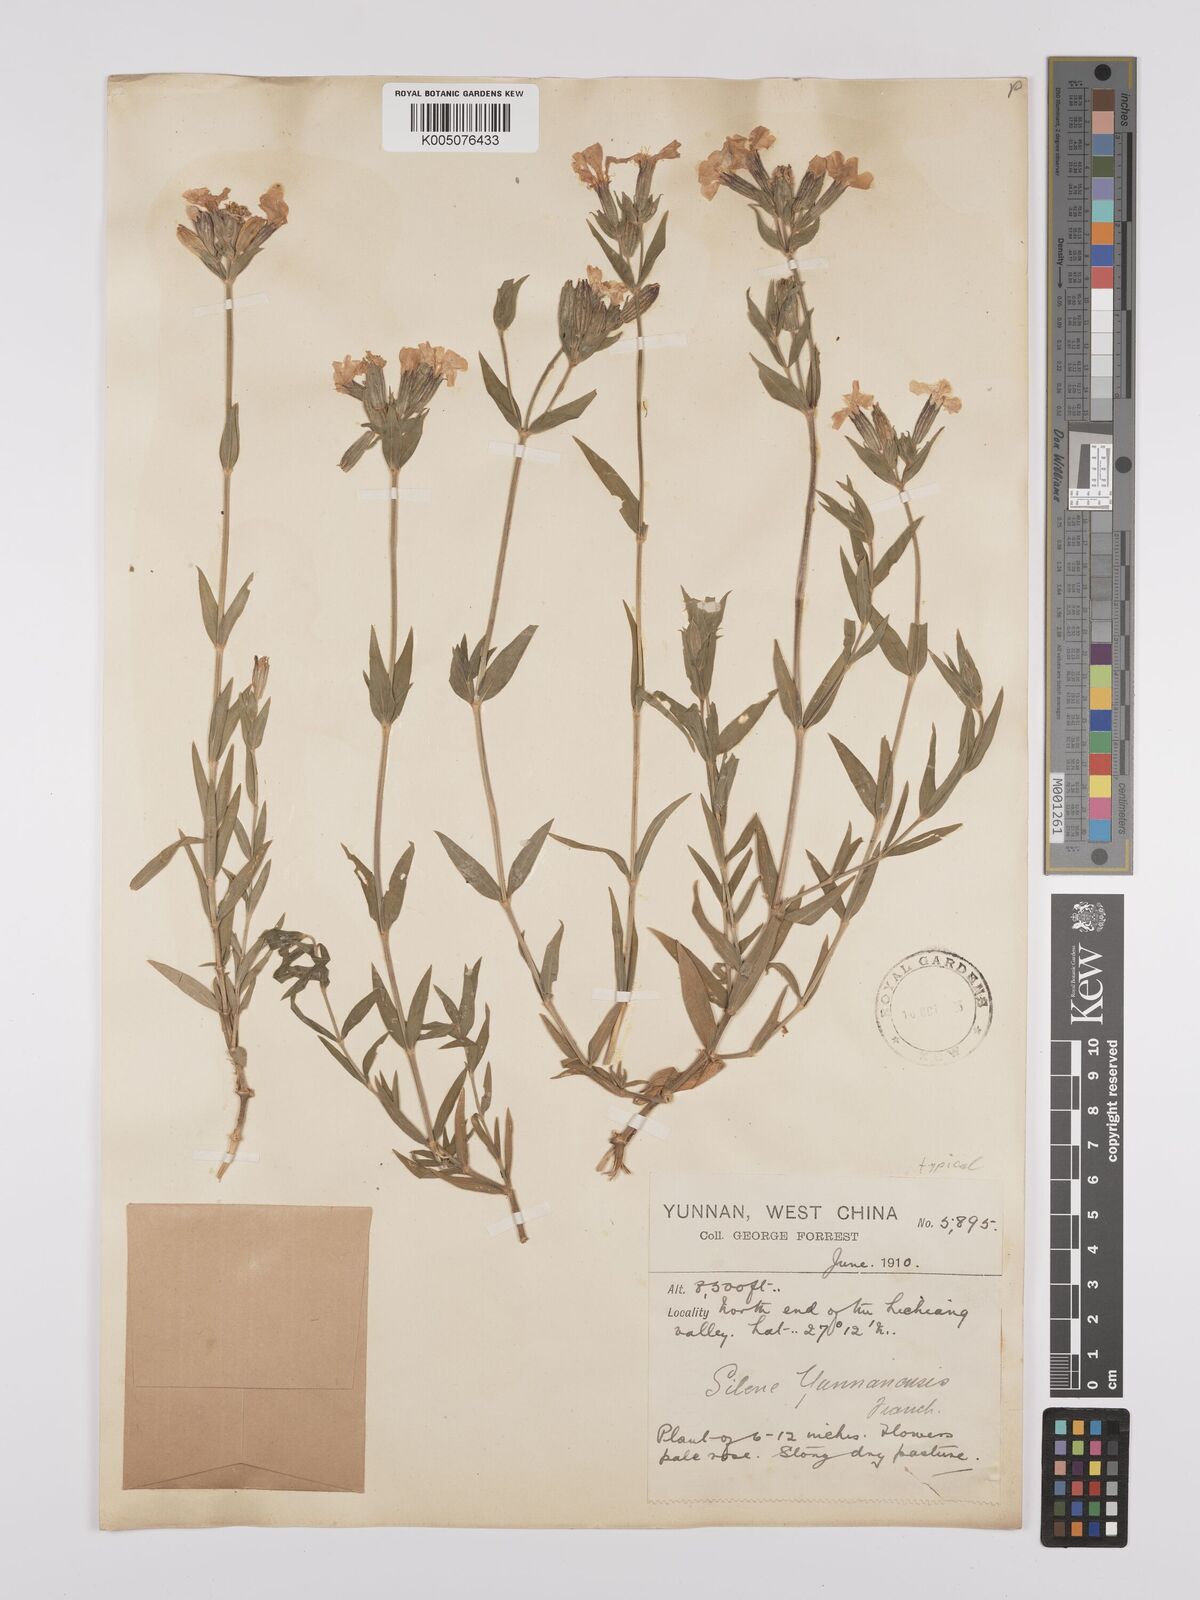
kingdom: Plantae
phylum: Tracheophyta
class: Magnoliopsida
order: Caryophyllales
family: Caryophyllaceae
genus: Silene
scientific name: Silene yunnanensis
